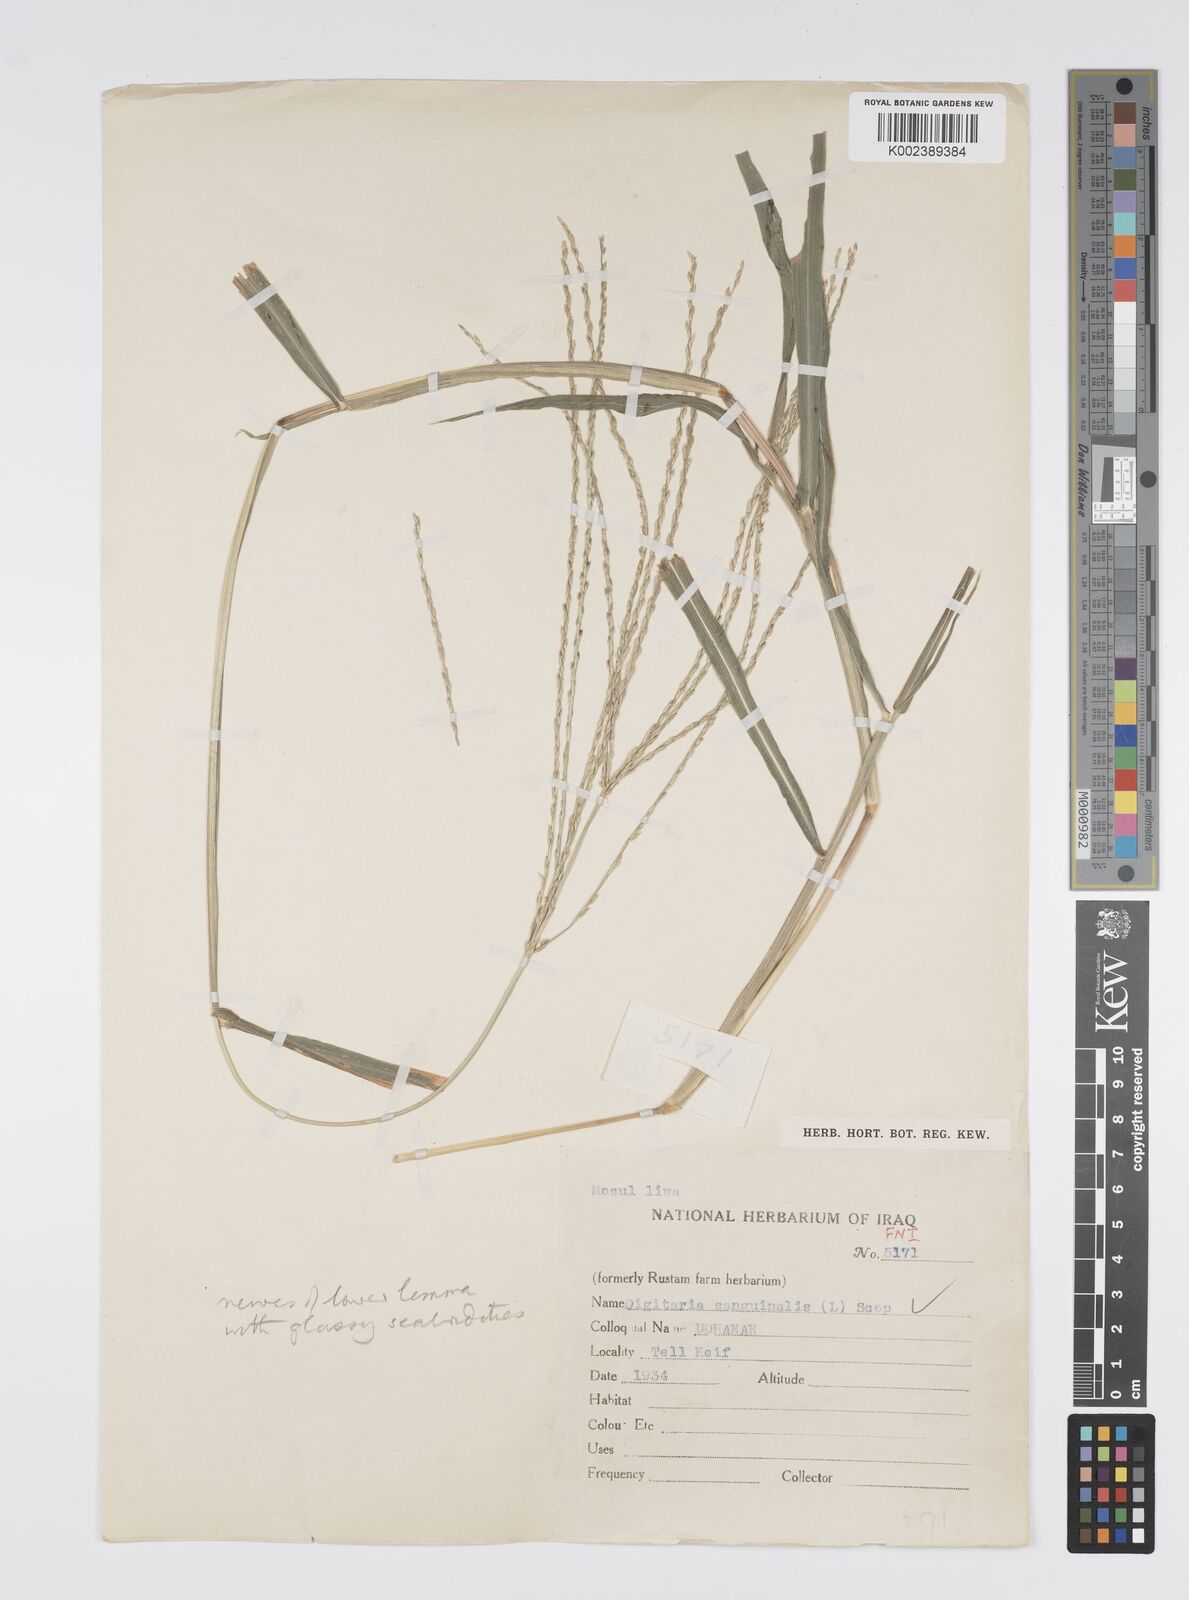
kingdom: Plantae
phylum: Tracheophyta
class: Liliopsida
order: Poales
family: Poaceae
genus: Digitaria
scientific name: Digitaria sanguinalis
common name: Hairy crabgrass
